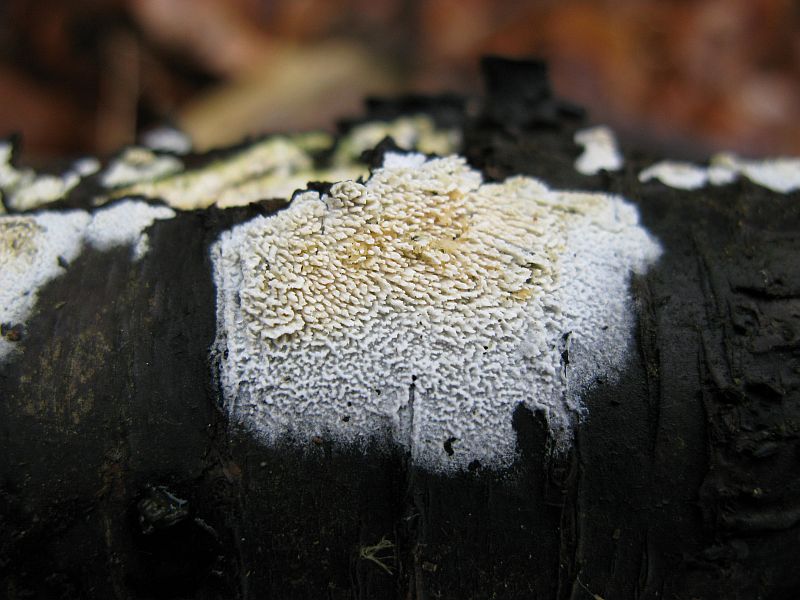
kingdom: Fungi
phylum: Basidiomycota
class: Agaricomycetes
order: Hymenochaetales
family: Schizoporaceae
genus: Schizopora
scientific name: Schizopora paradoxa
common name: hvid tandsvamp
